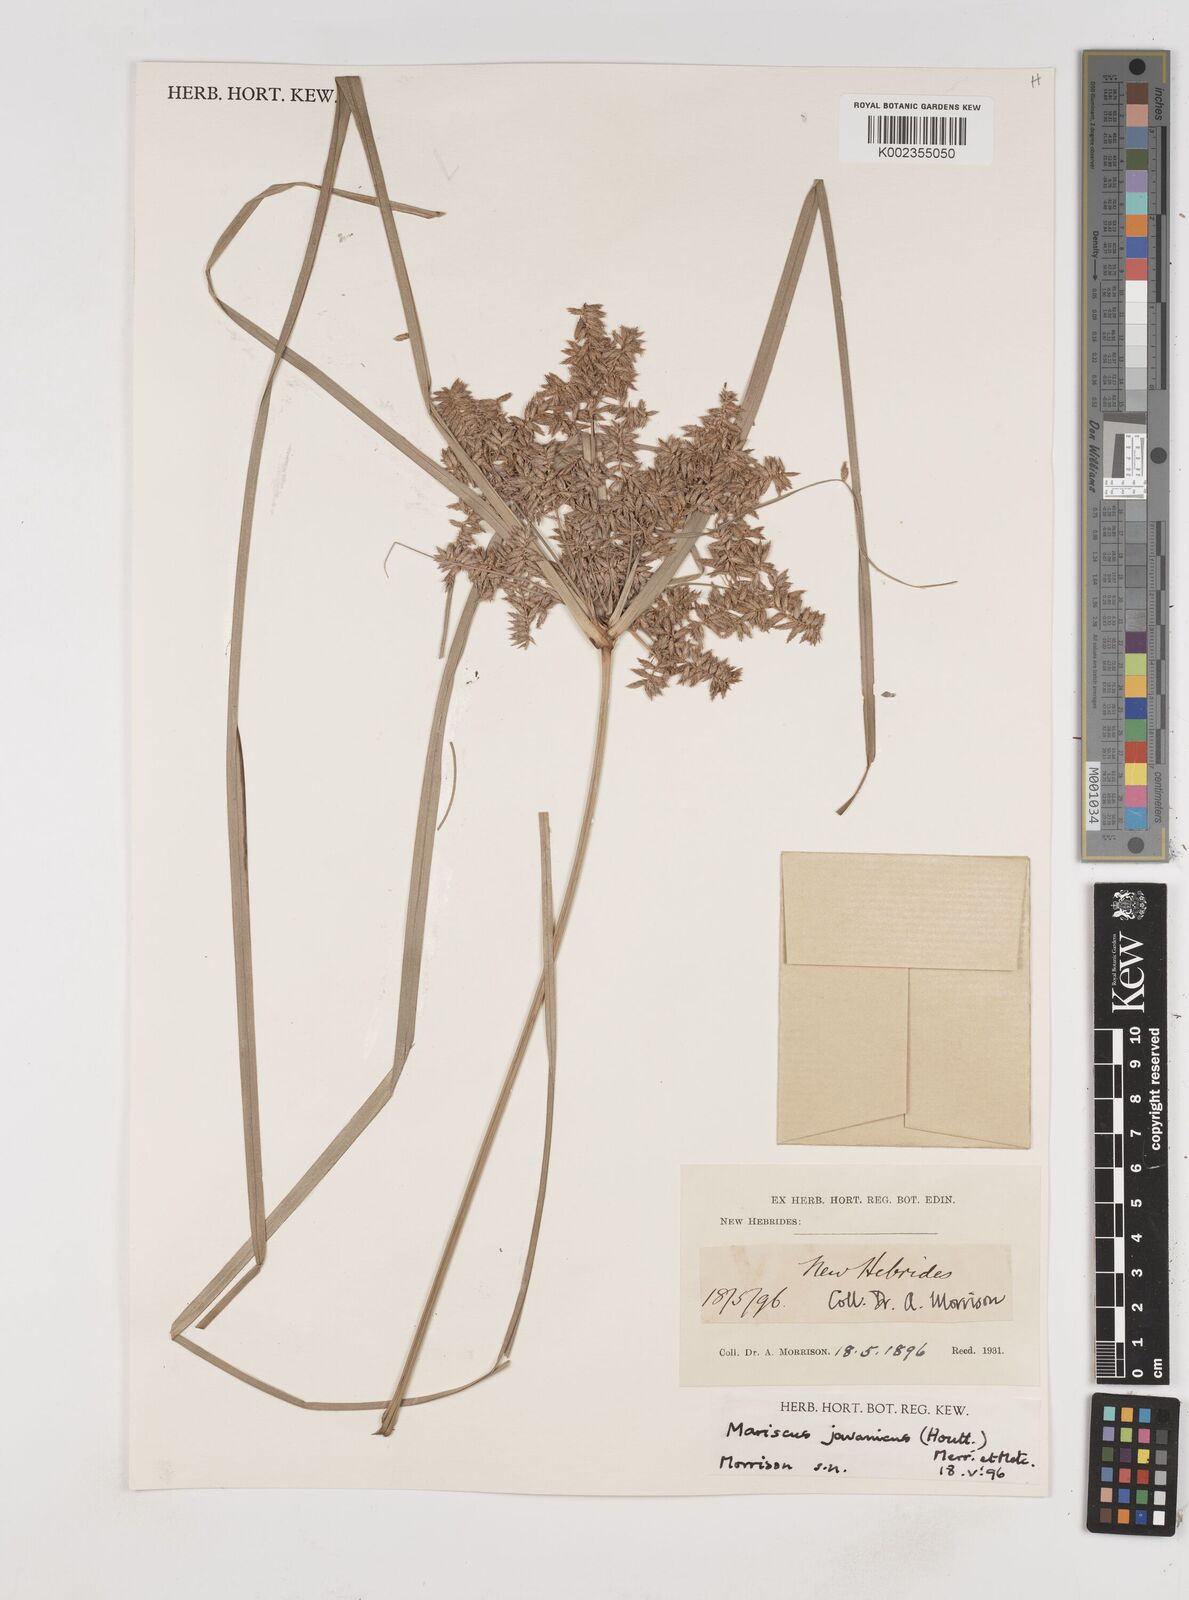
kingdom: Plantae
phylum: Tracheophyta
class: Liliopsida
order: Poales
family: Cyperaceae
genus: Cyperus
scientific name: Cyperus javanicus
